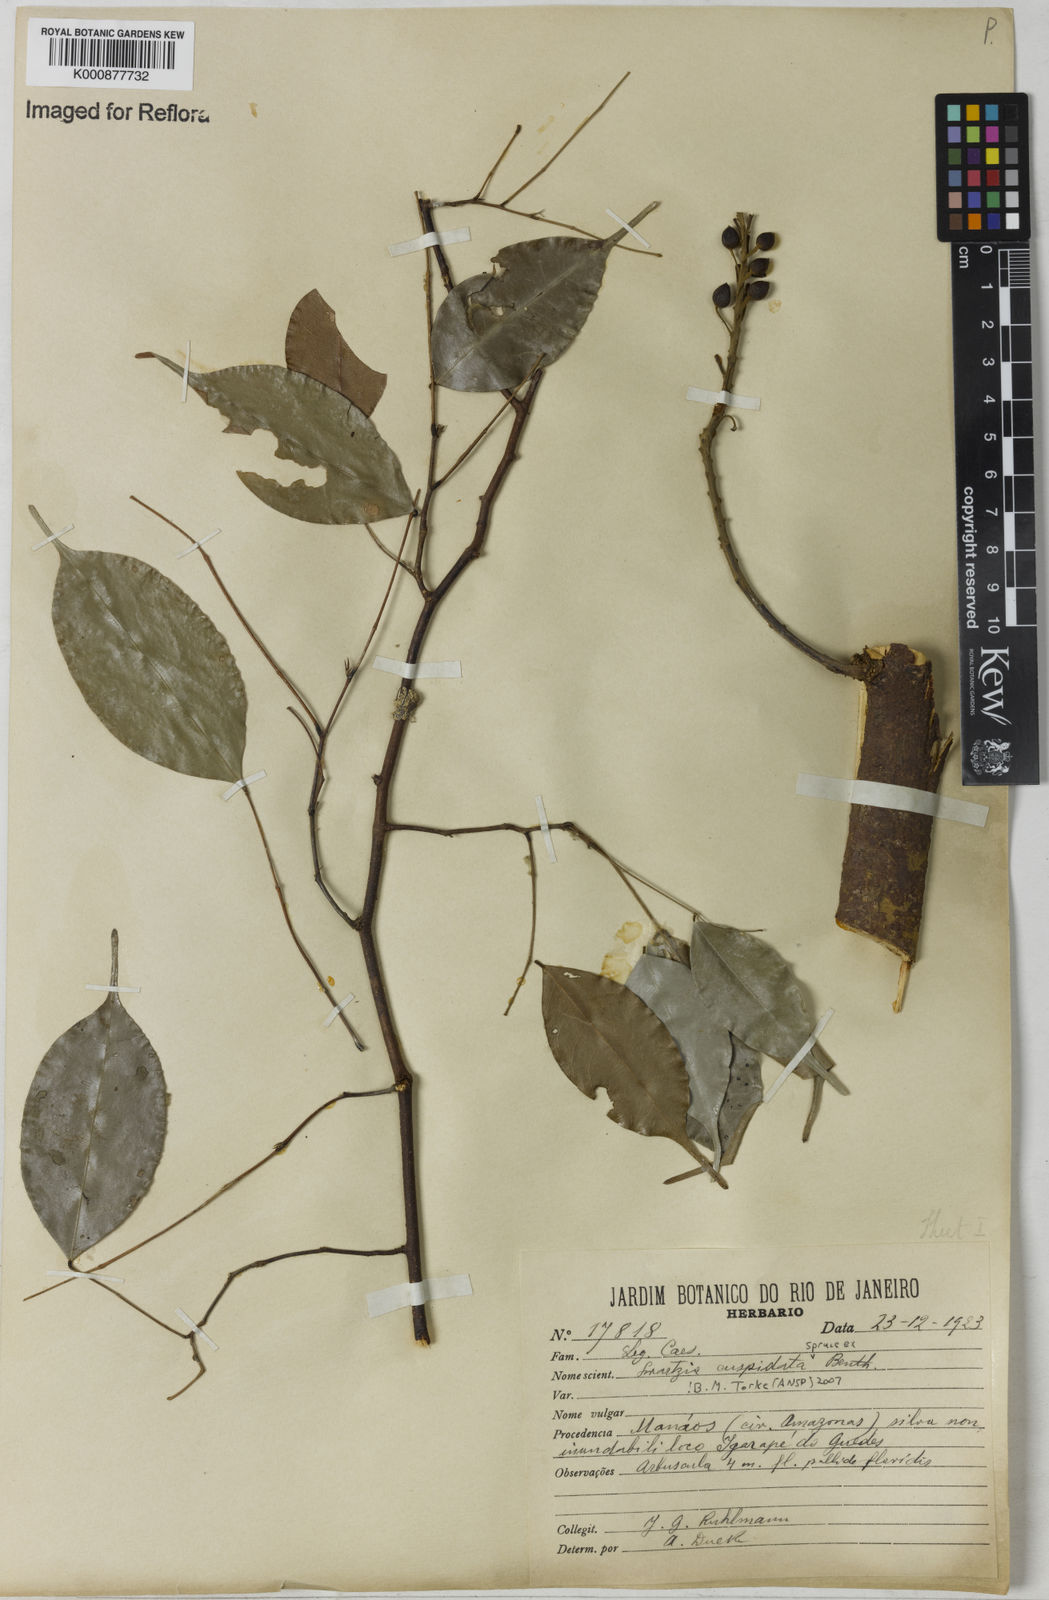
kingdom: Plantae
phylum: Tracheophyta
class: Magnoliopsida
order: Fabales
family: Fabaceae
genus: Swartzia
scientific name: Swartzia cuspidata
